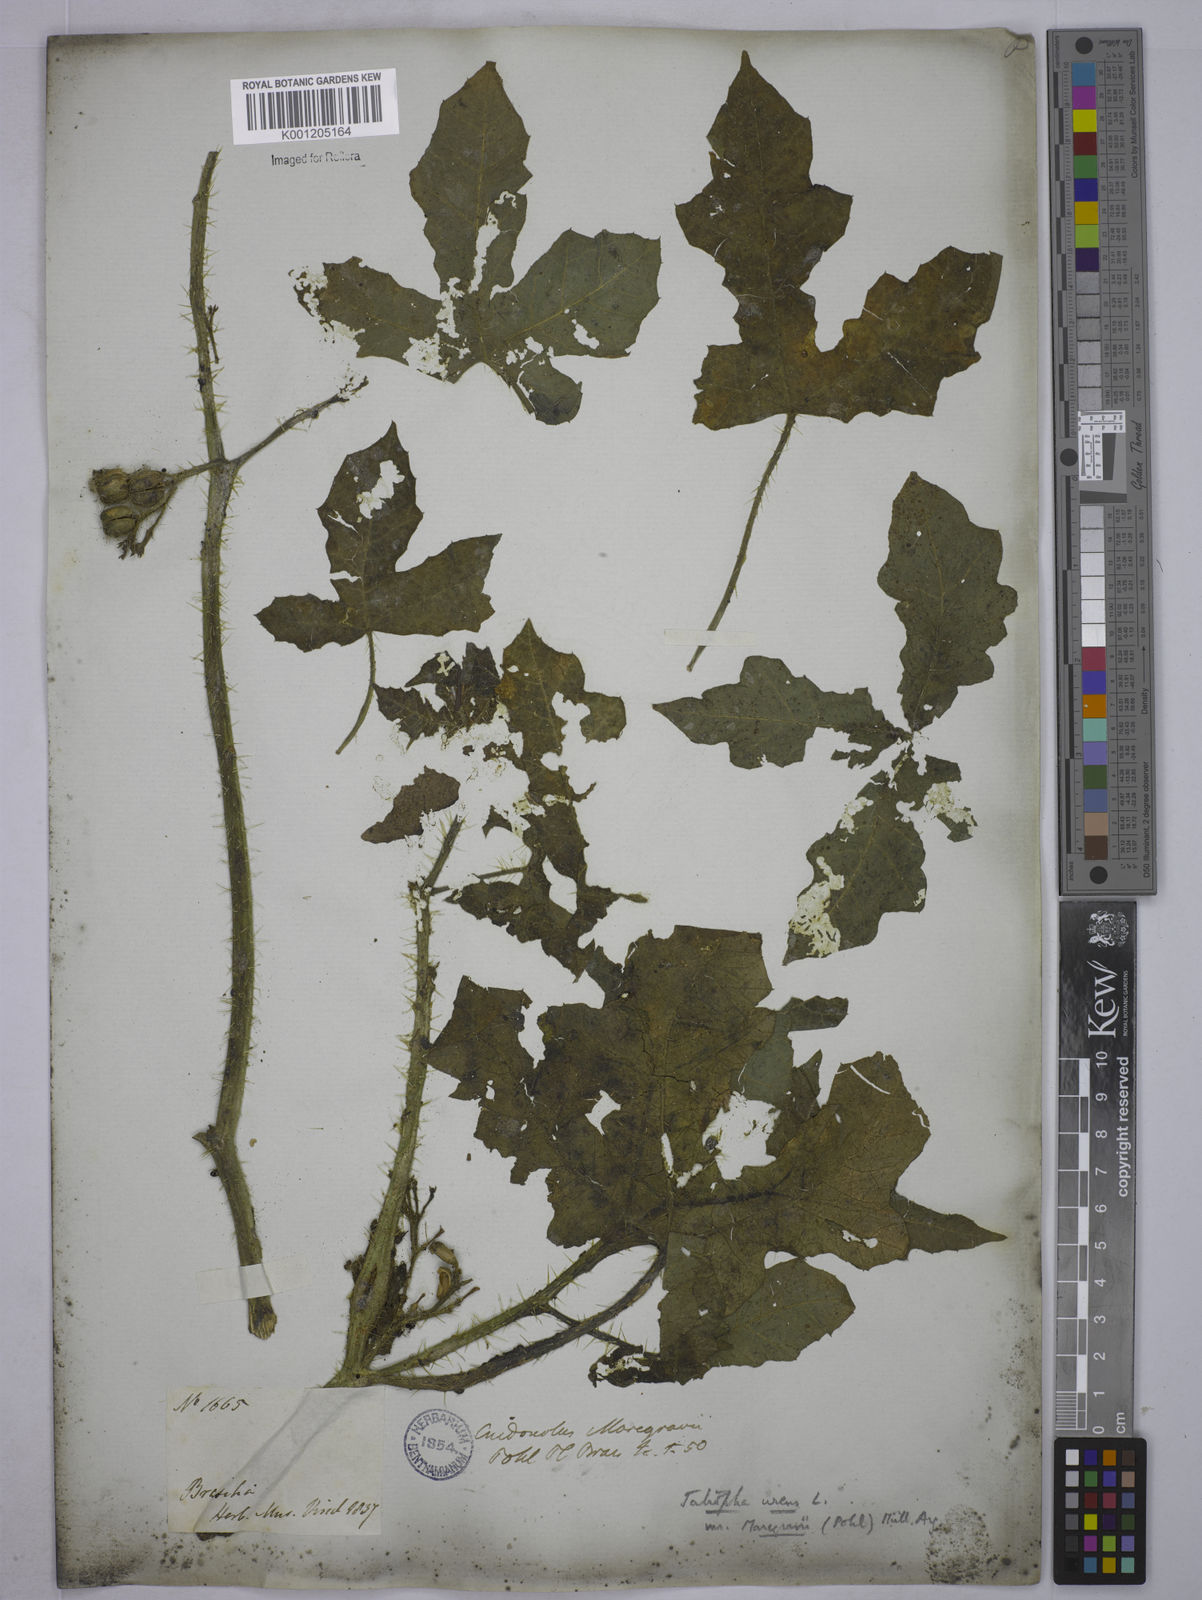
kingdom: Plantae
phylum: Tracheophyta
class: Magnoliopsida
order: Malpighiales
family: Euphorbiaceae
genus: Cnidoscolus
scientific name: Cnidoscolus urens
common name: Bull-nettle
